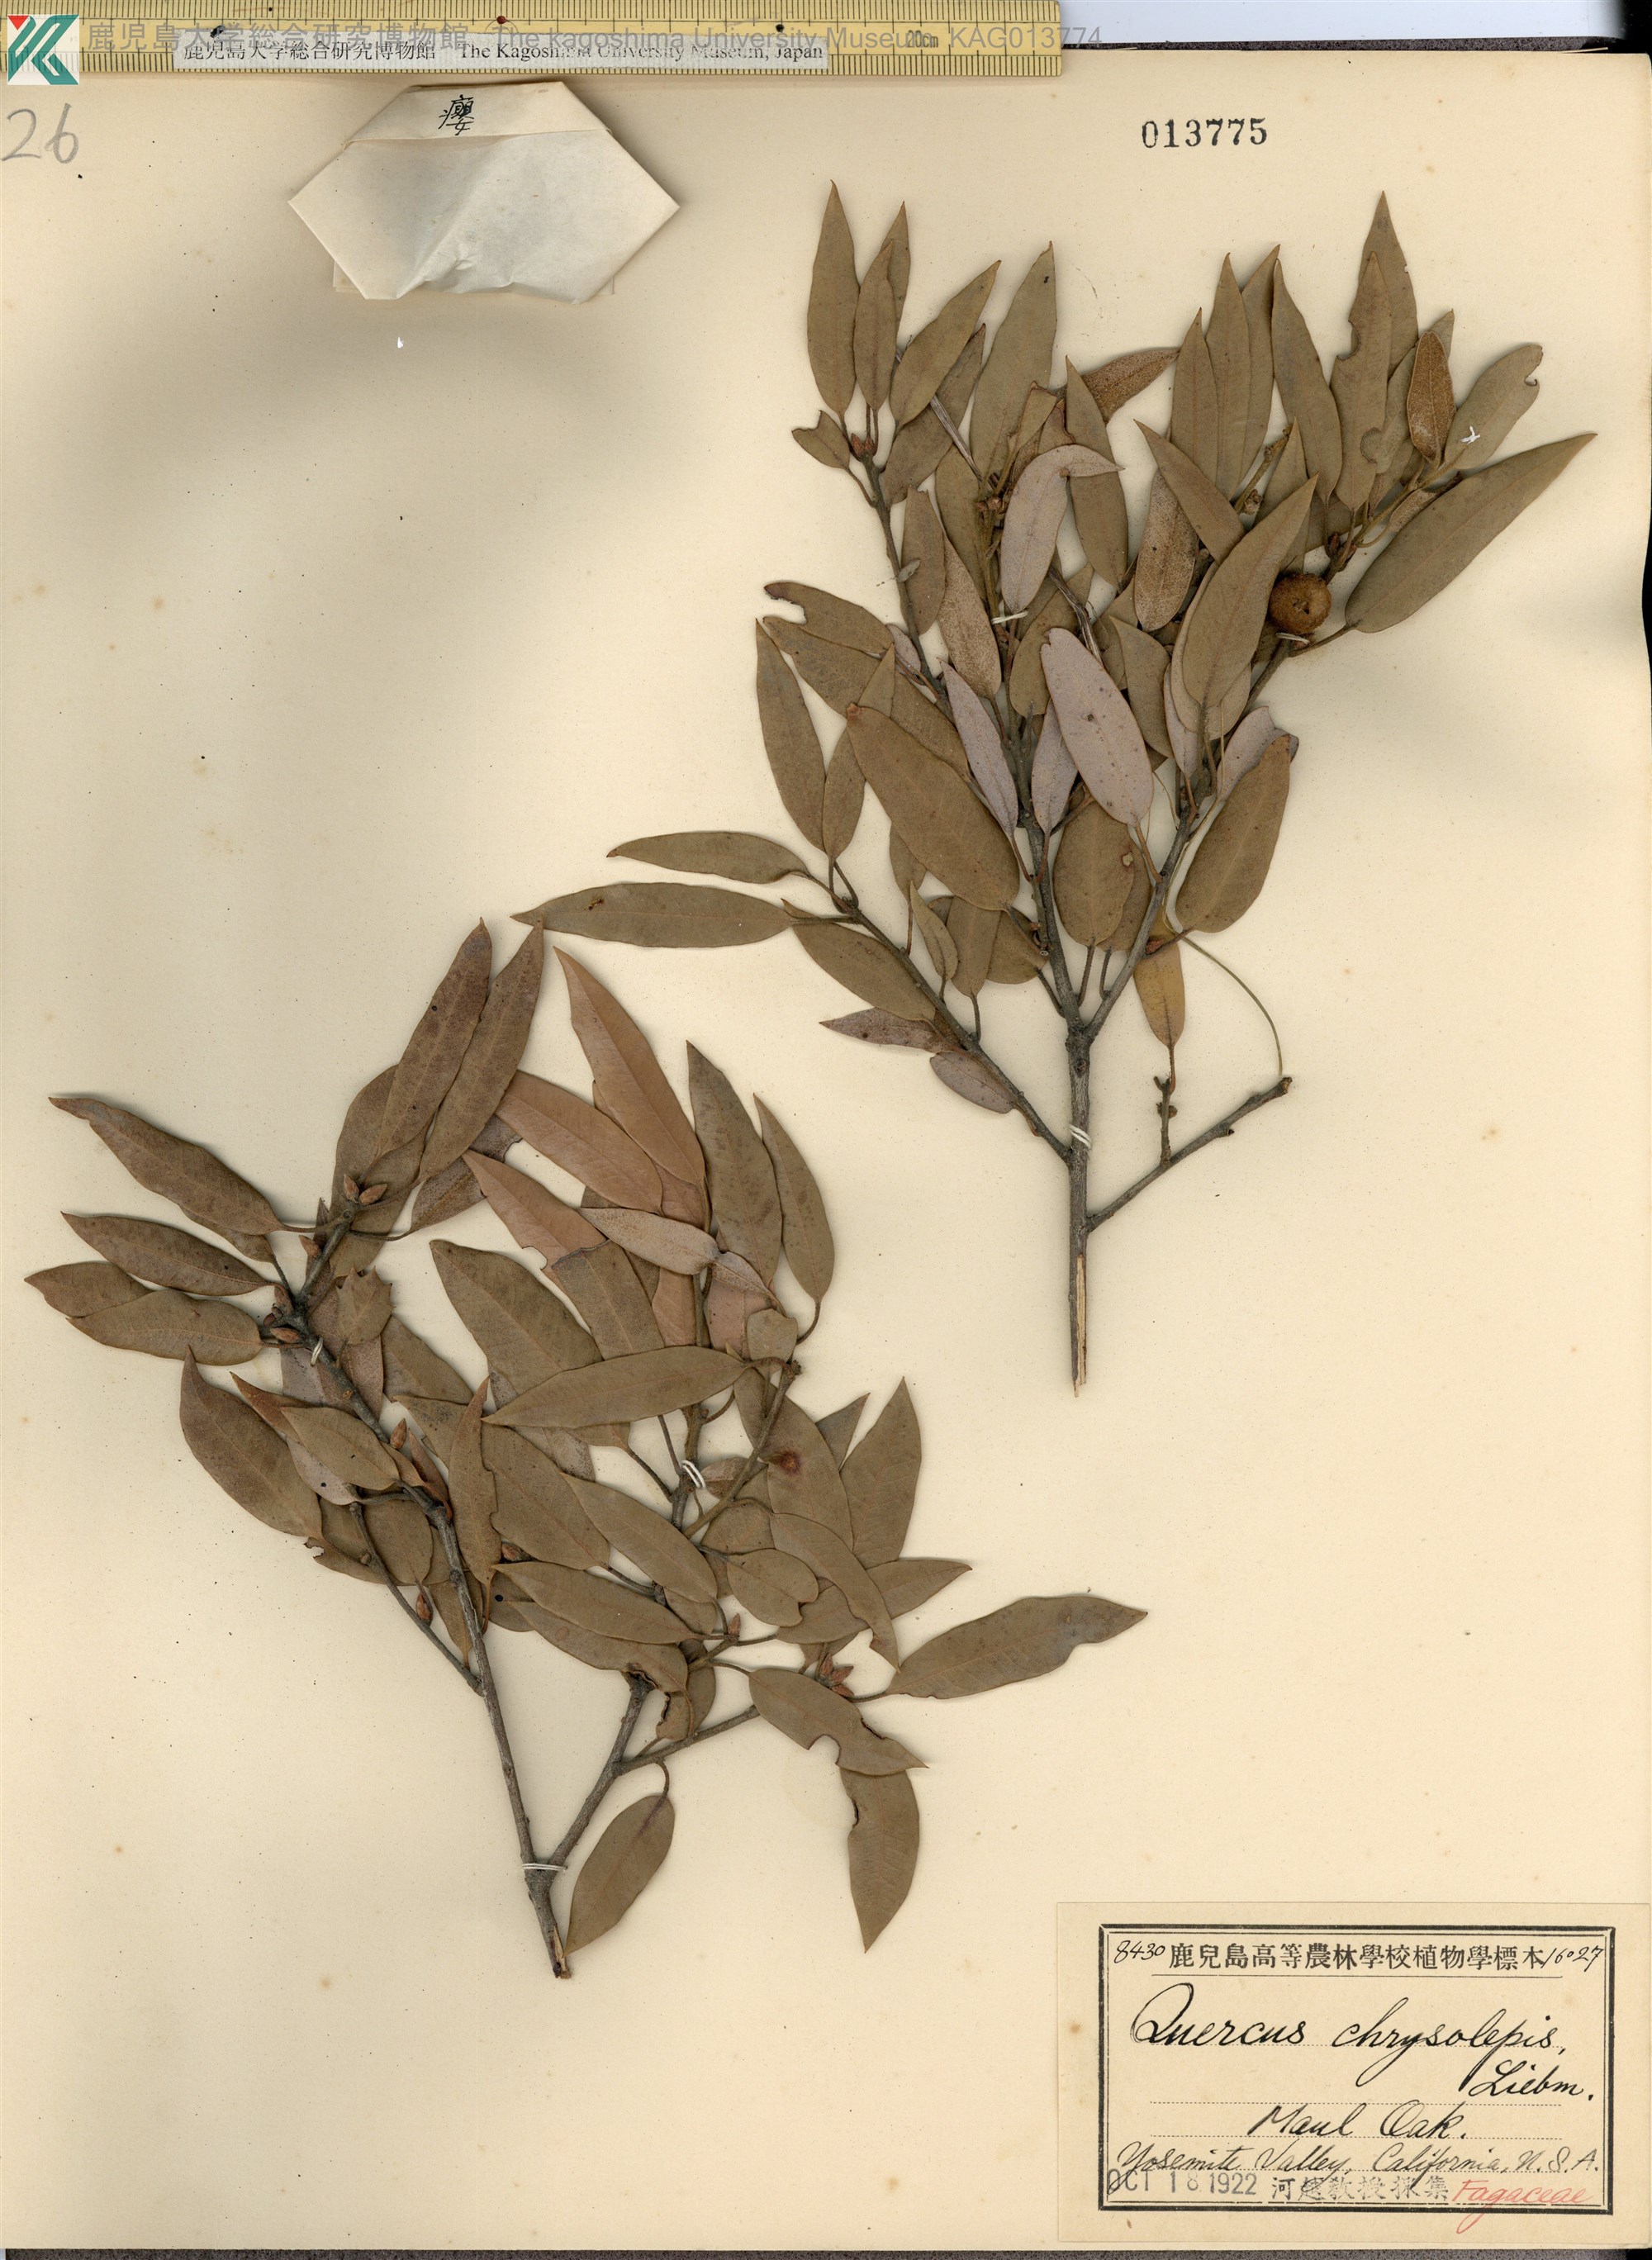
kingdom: Plantae
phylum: Tracheophyta
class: Magnoliopsida
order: Fagales
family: Fagaceae
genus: Quercus
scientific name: Quercus chrysolepis
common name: Canyon live oak
